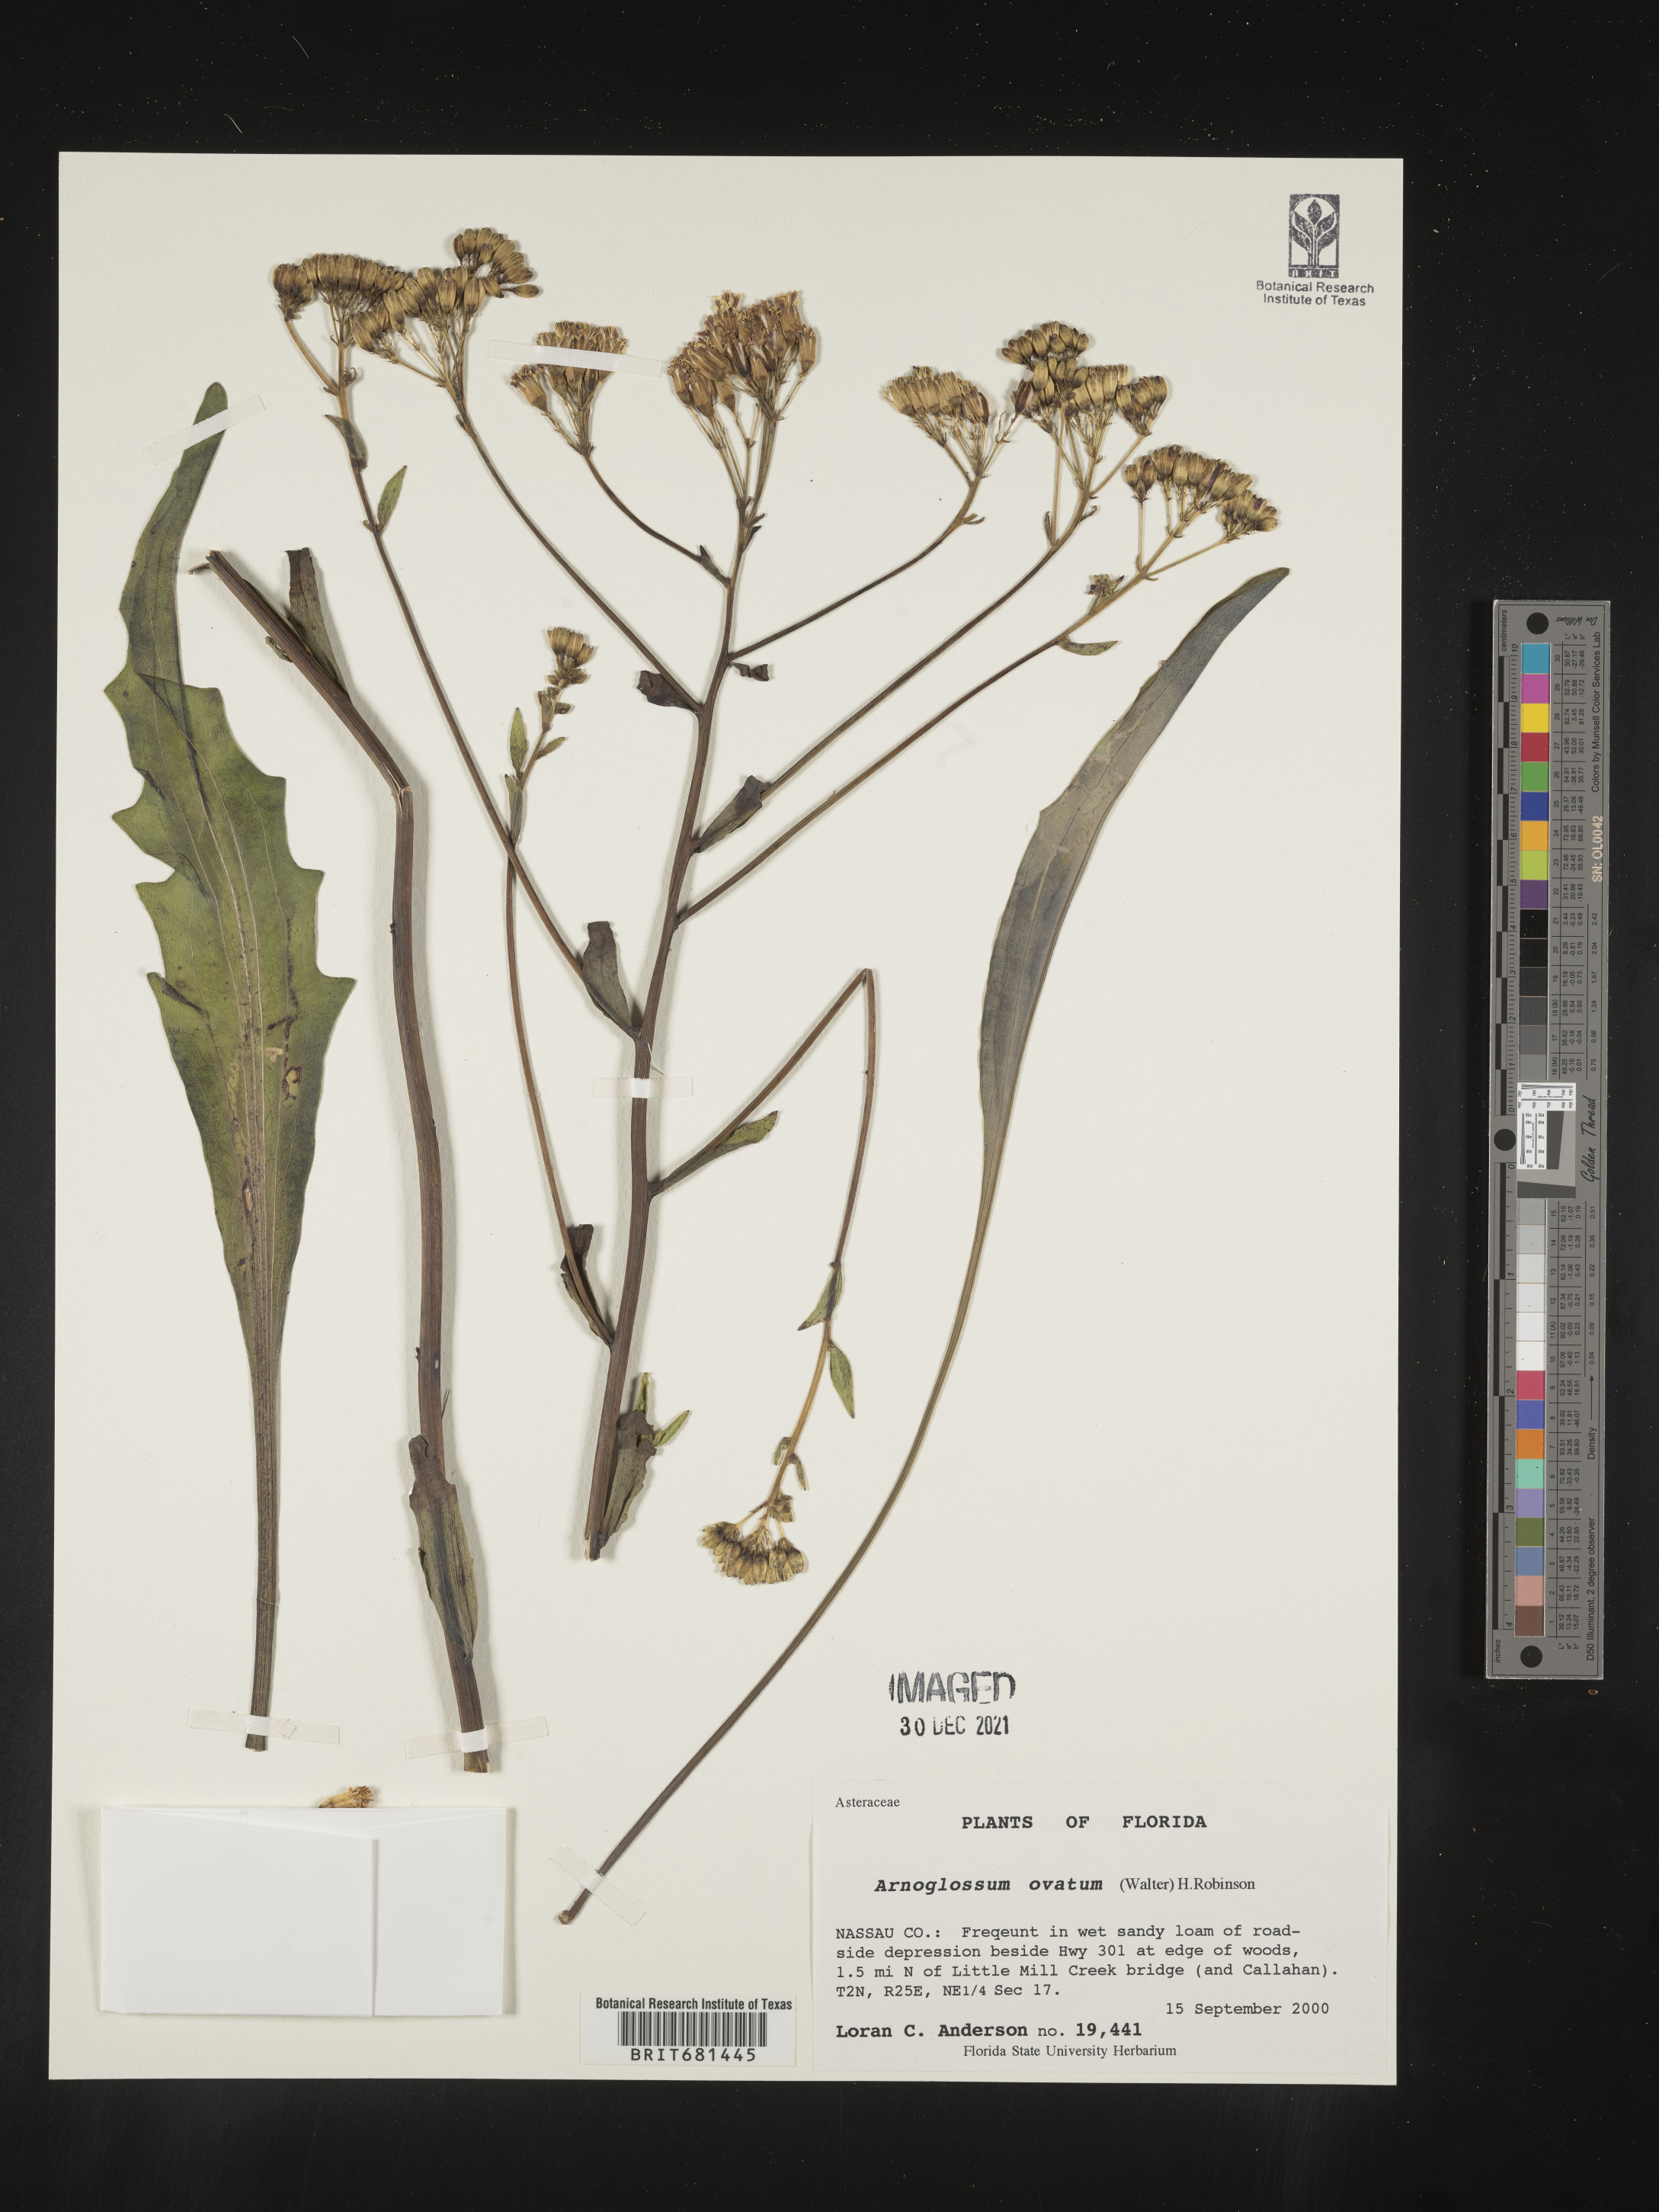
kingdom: Plantae
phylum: Tracheophyta
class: Magnoliopsida
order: Asterales
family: Asteraceae
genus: Arnoglossum
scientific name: Arnoglossum ovatum
